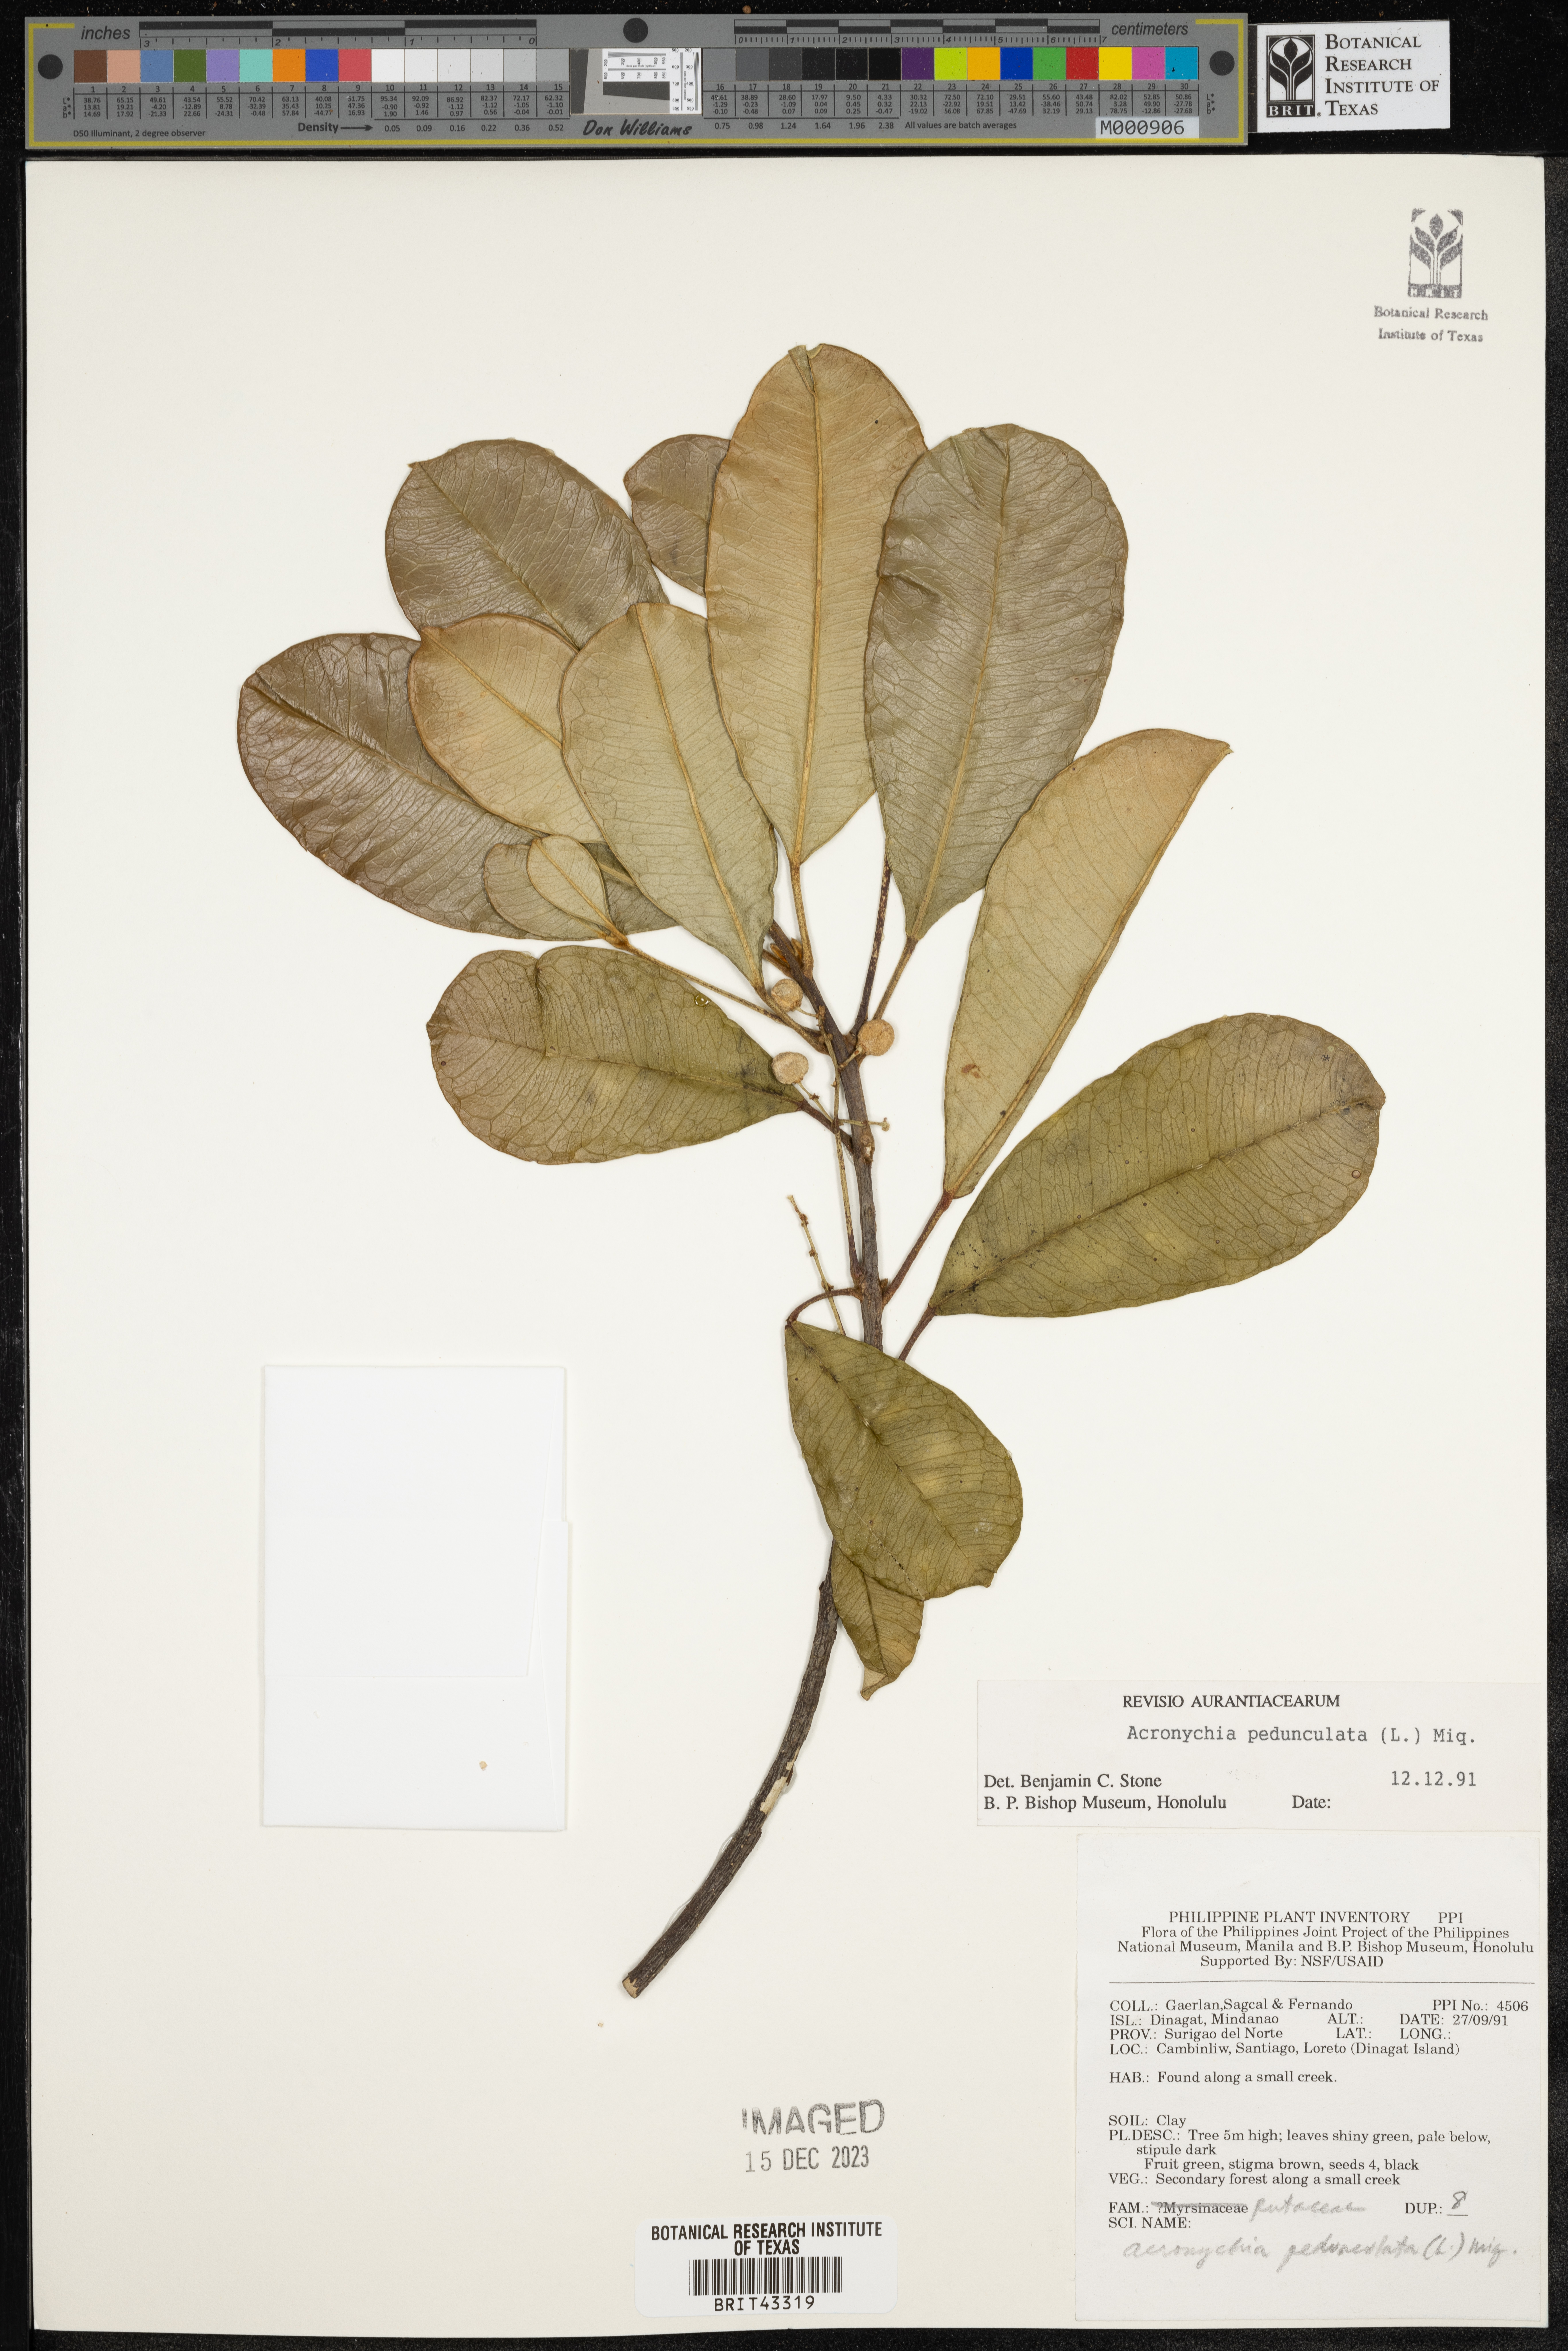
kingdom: Plantae
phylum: Tracheophyta
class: Magnoliopsida
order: Sapindales
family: Rutaceae
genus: Acronychia
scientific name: Acronychia pedunculata
